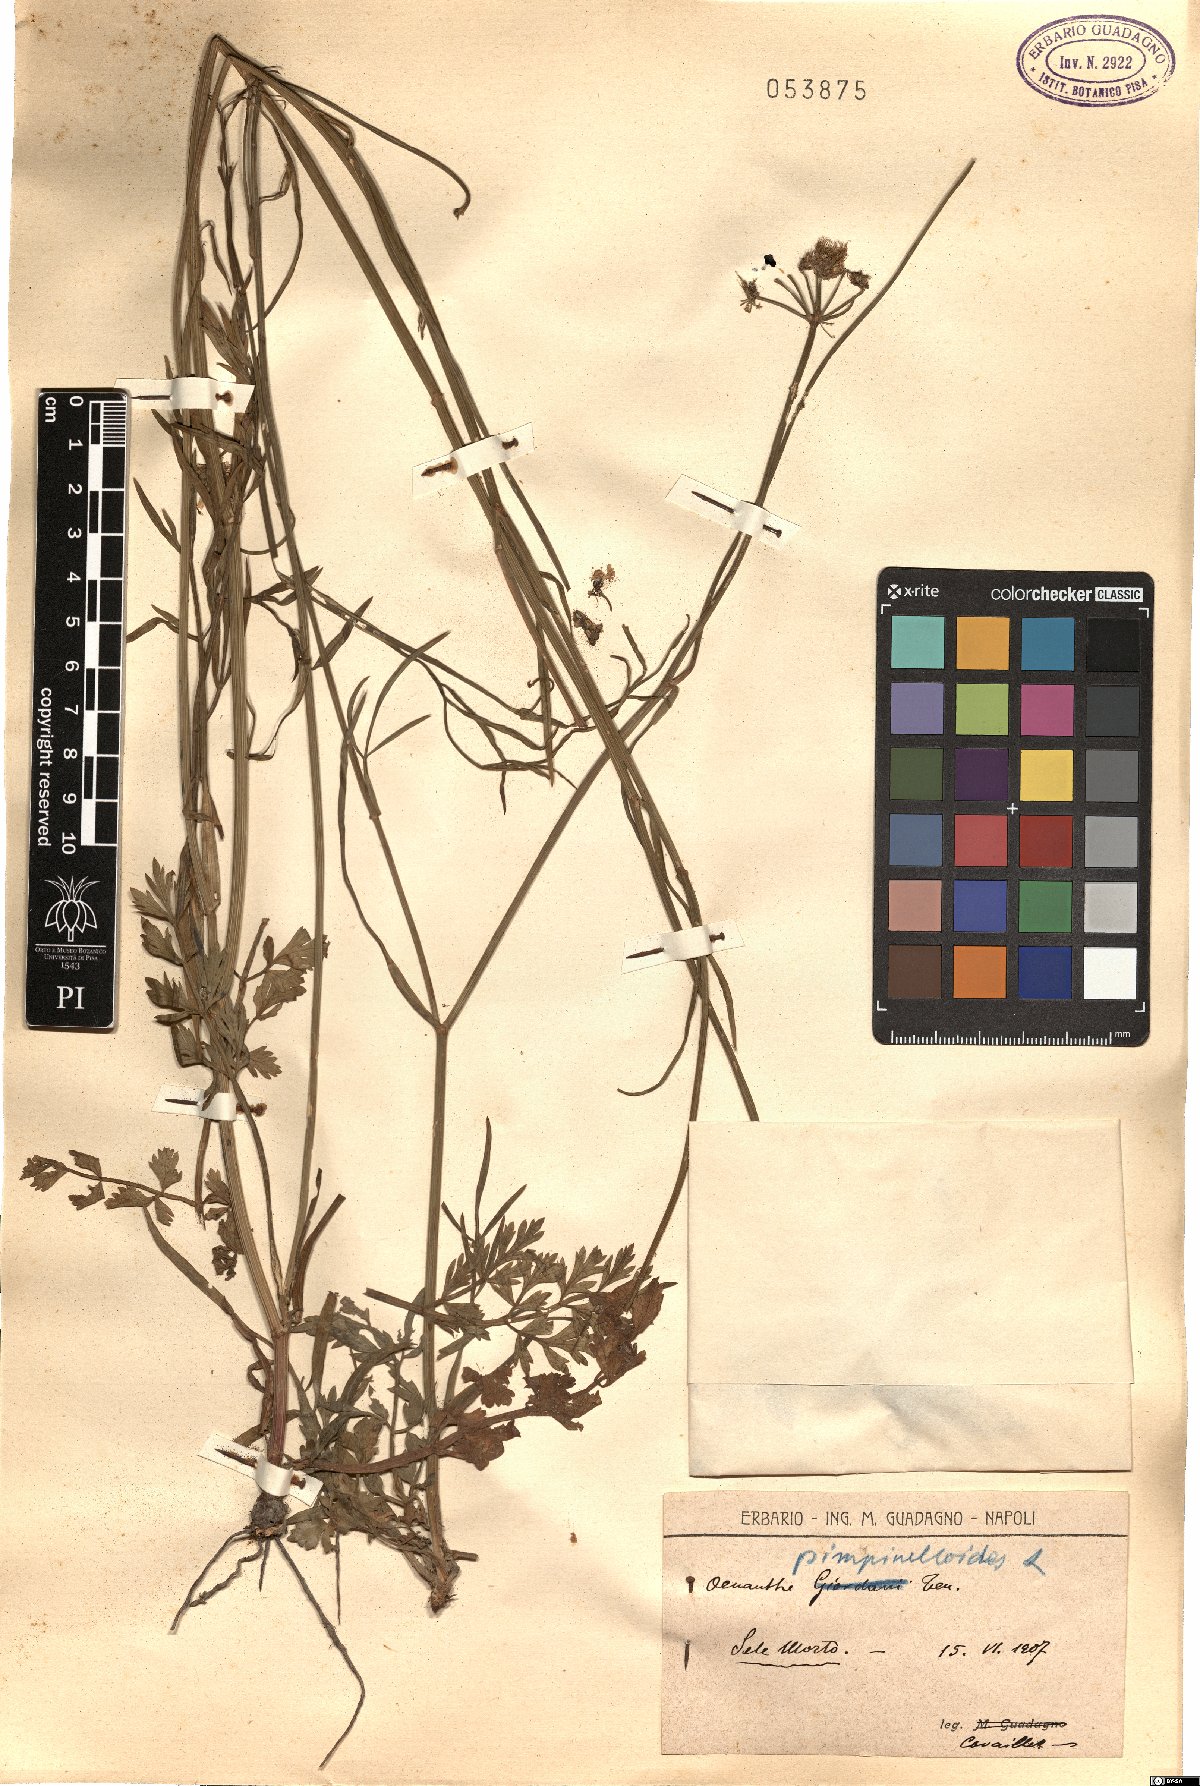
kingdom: Plantae
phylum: Tracheophyta
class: Magnoliopsida
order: Apiales
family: Apiaceae
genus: Oenanthe
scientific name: Oenanthe pimpinelloides
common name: Corky-fruited water-dropwort
